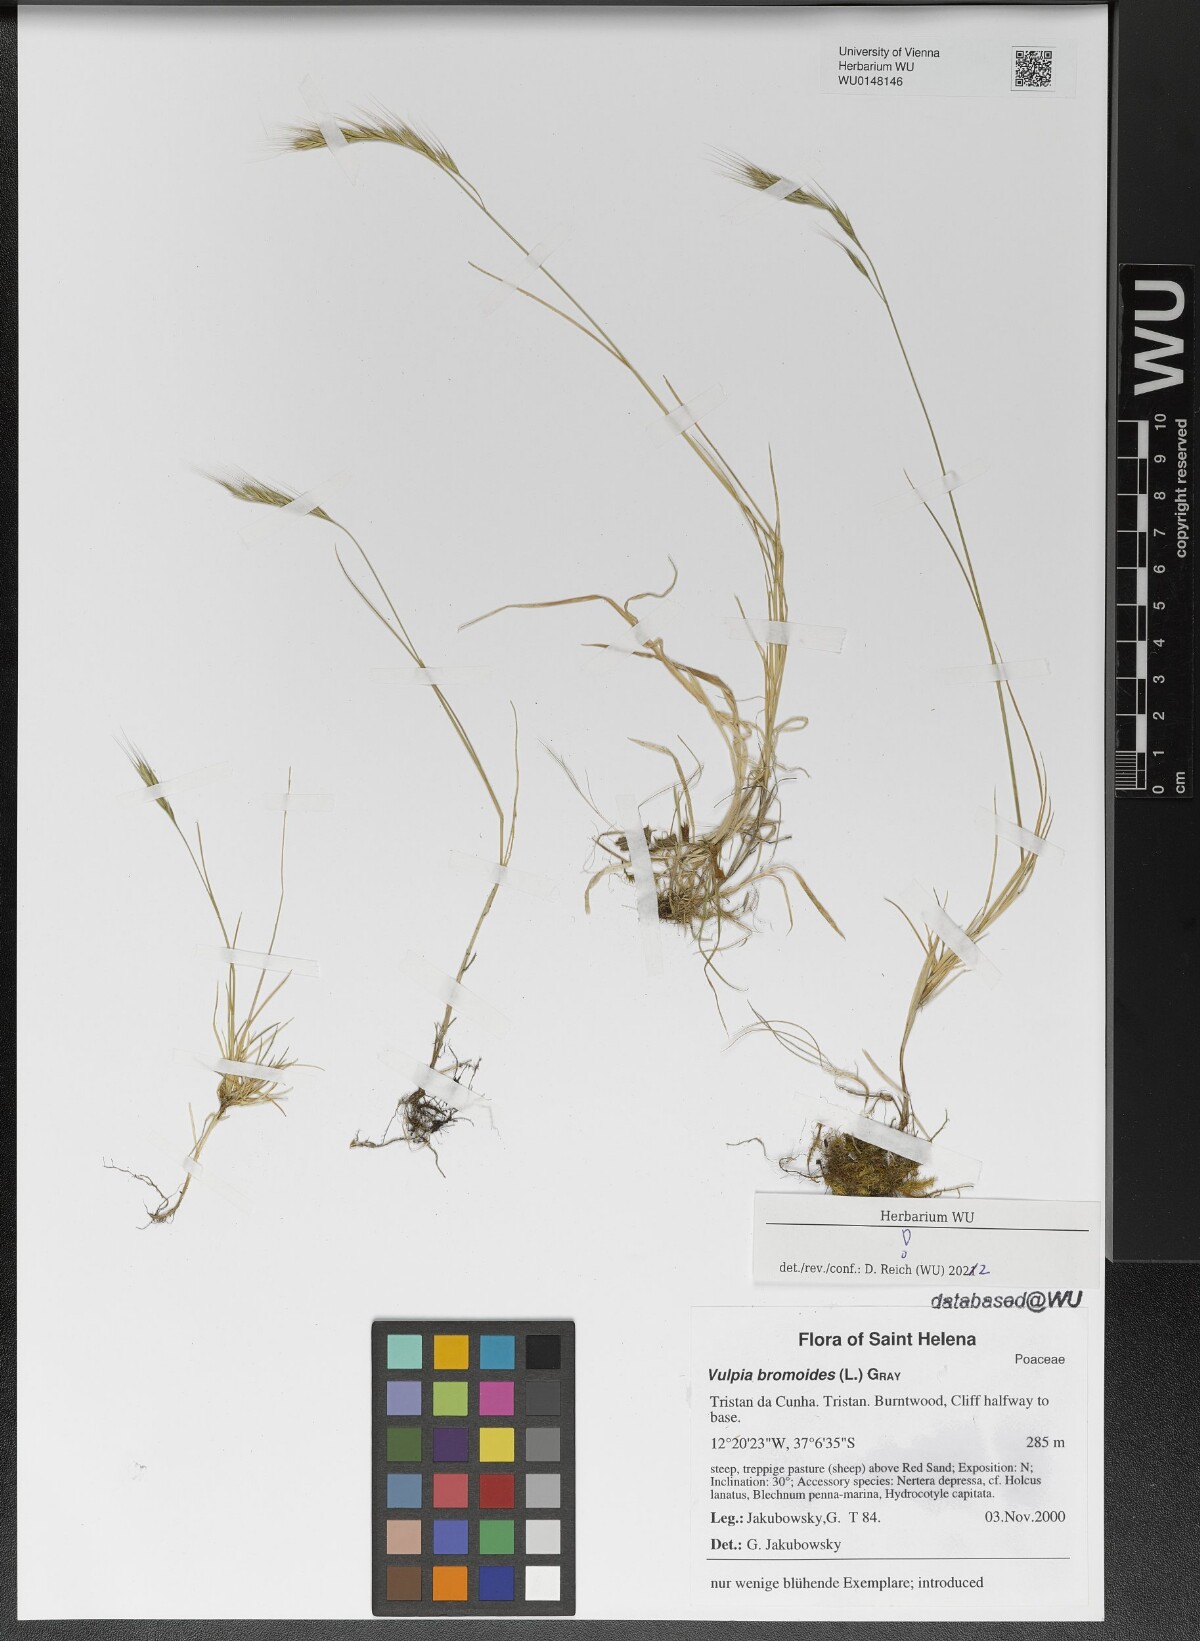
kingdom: Plantae
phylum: Tracheophyta
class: Liliopsida
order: Poales
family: Poaceae
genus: Festuca
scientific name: Festuca bromoides
